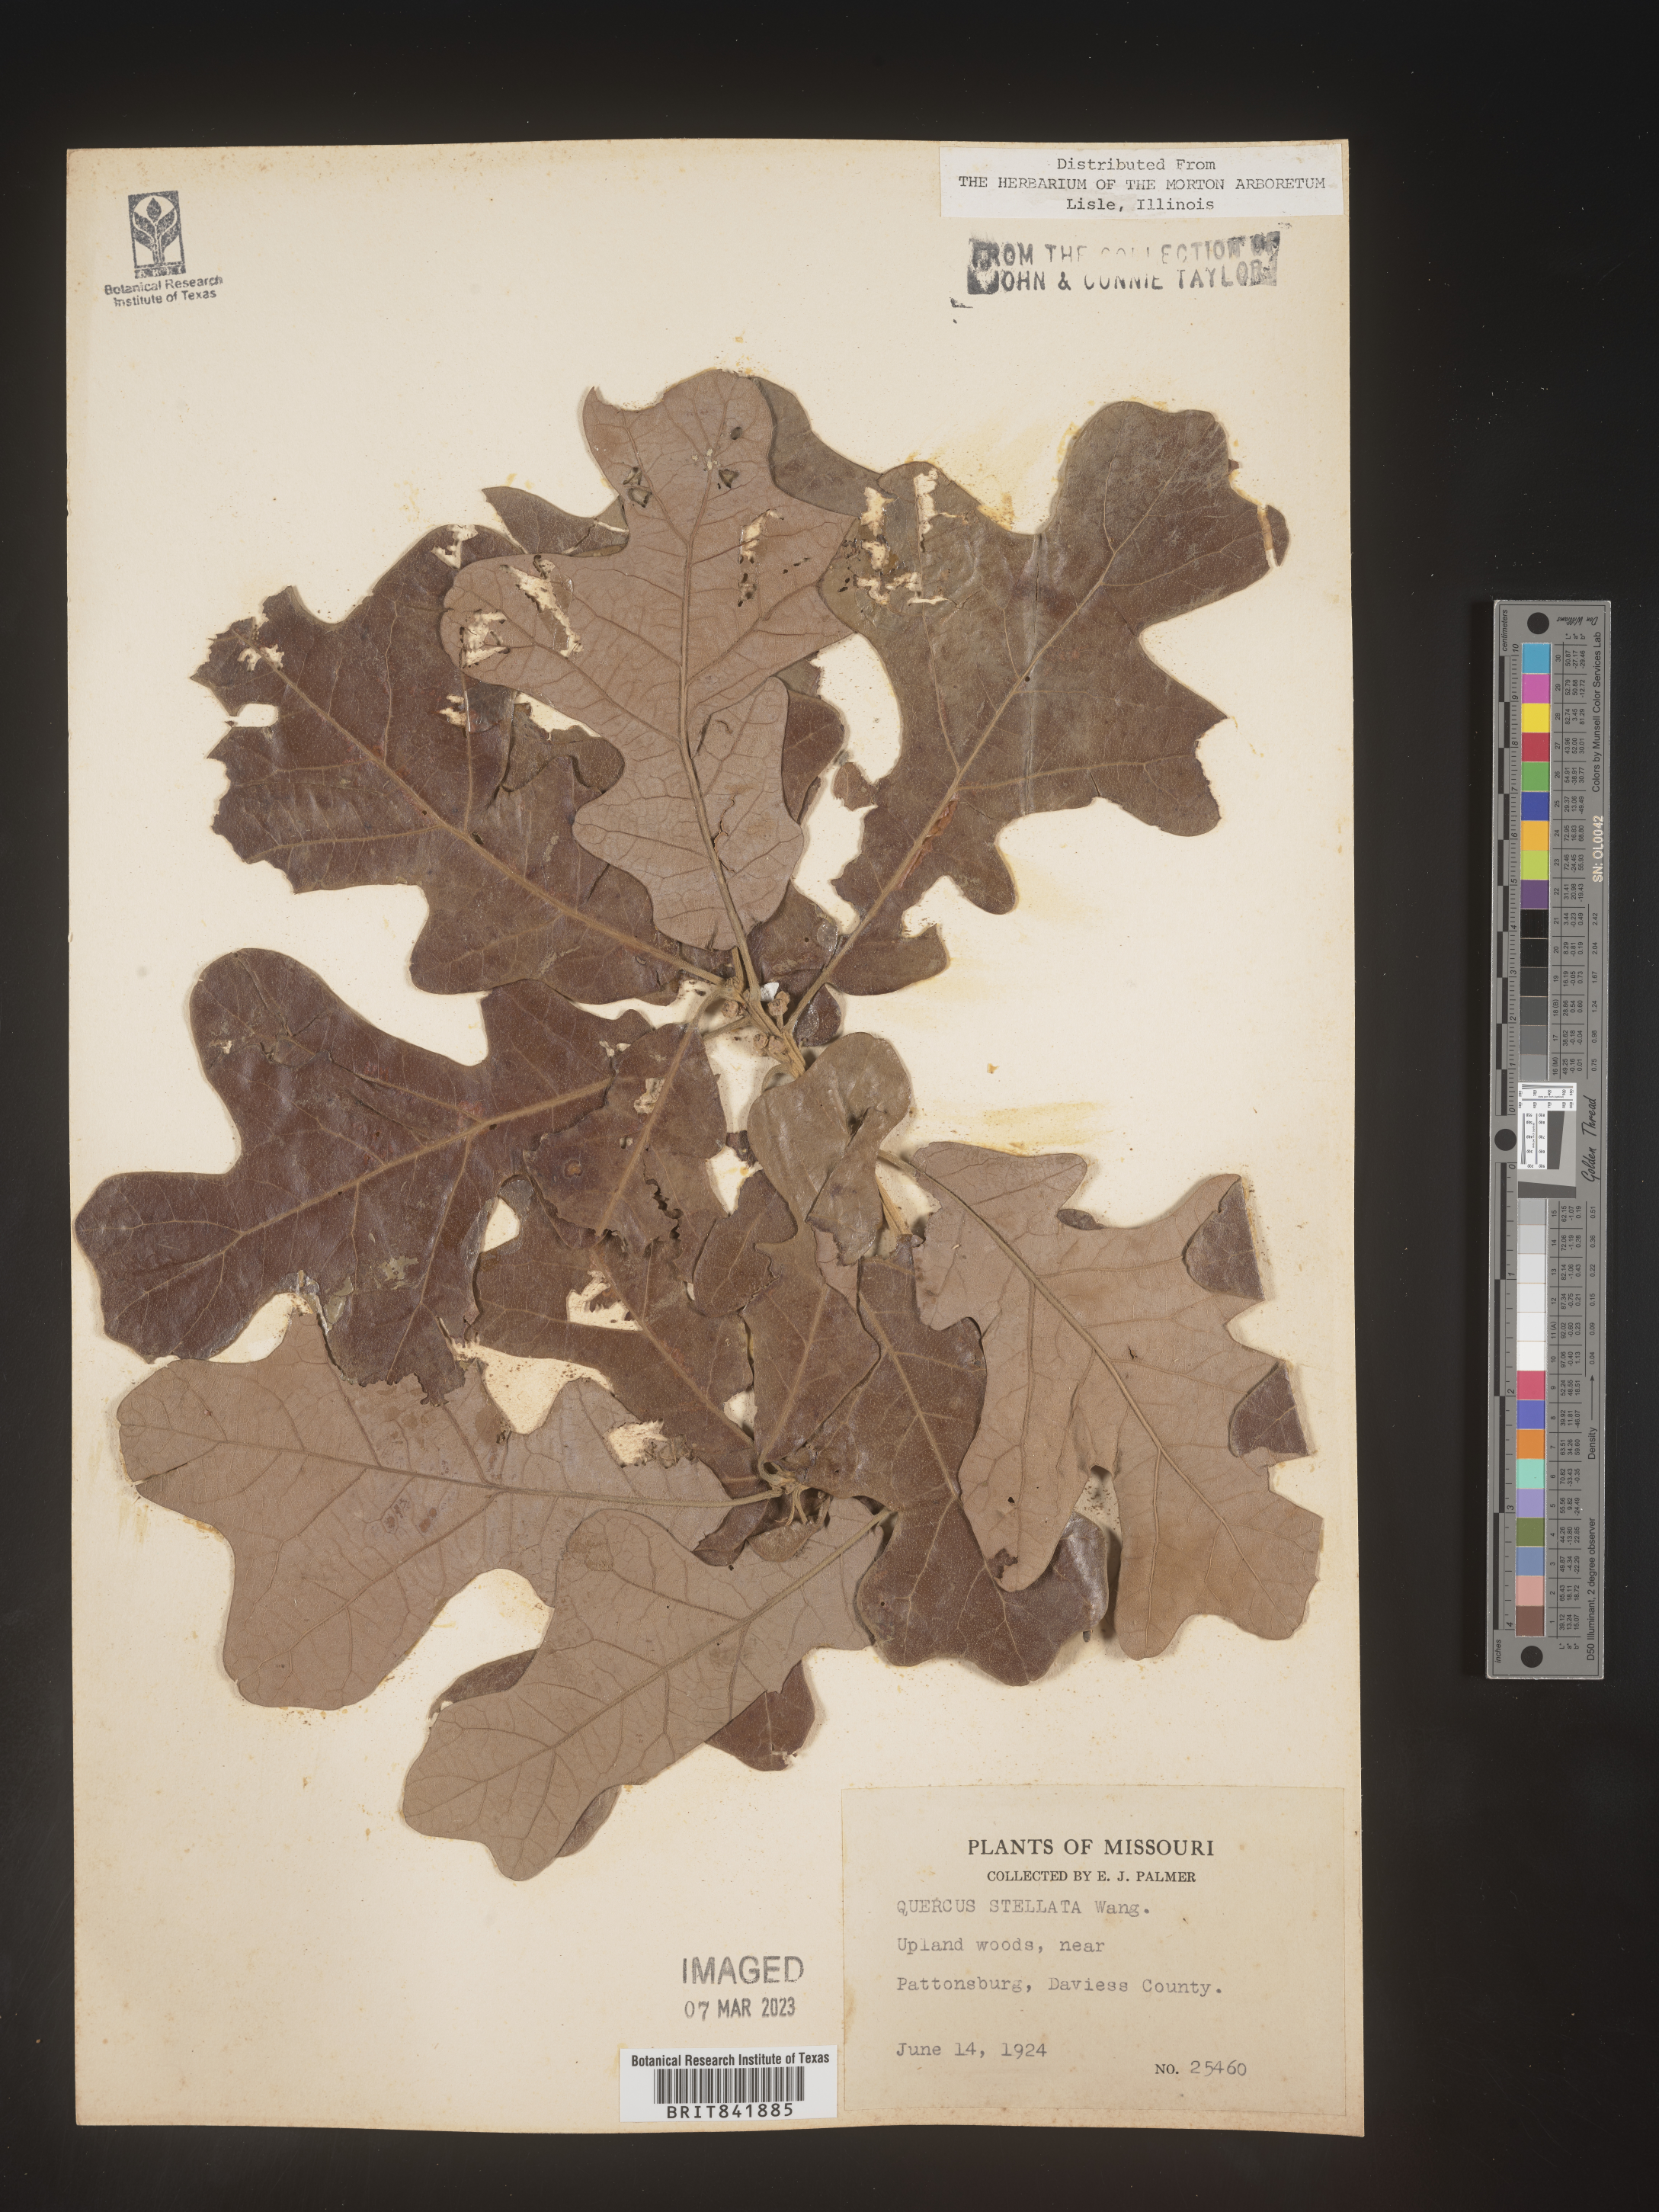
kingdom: Plantae
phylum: Tracheophyta
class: Magnoliopsida
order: Fagales
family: Fagaceae
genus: Quercus
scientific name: Quercus stellata
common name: Post oak
